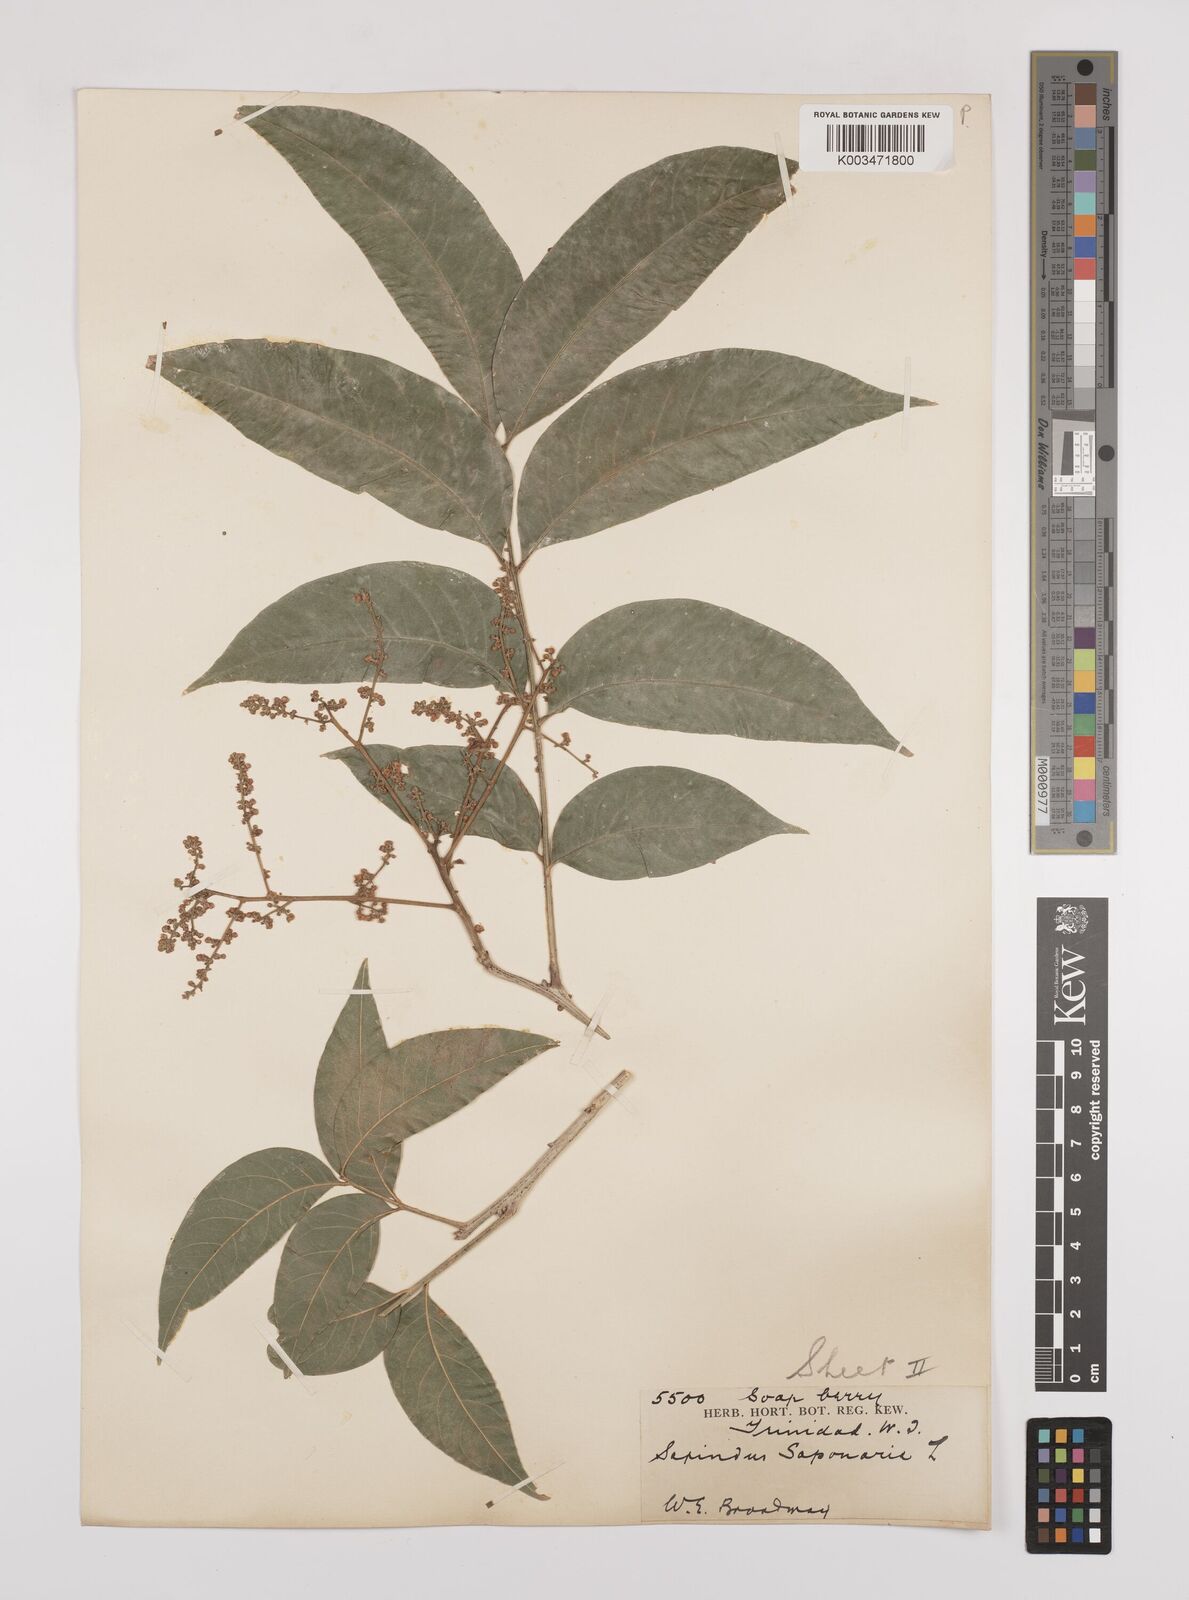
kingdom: Plantae
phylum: Tracheophyta
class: Magnoliopsida
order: Sapindales
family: Sapindaceae
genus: Sapindus
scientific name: Sapindus saponaria
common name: Wingleaf soapberry
